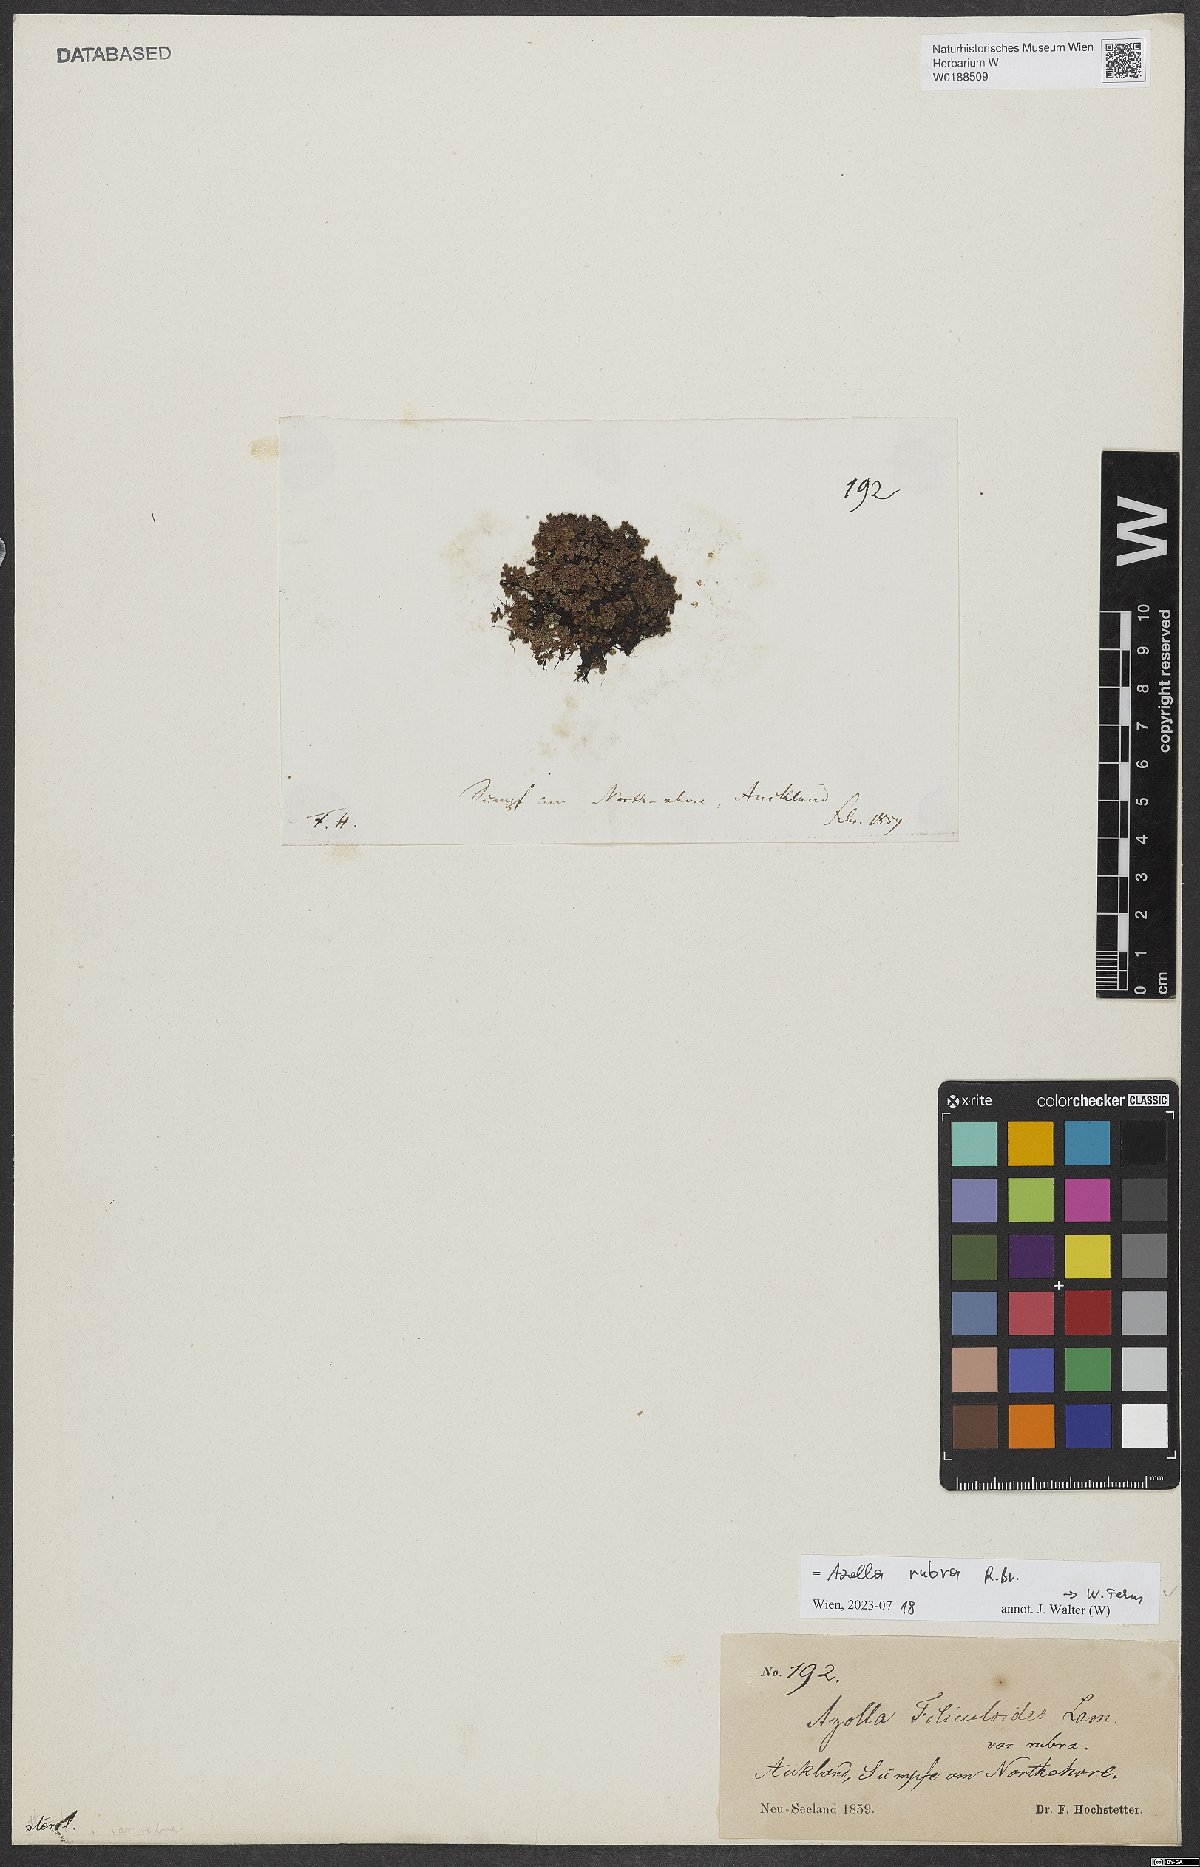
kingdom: Plantae
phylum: Tracheophyta
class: Polypodiopsida
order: Salviniales
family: Salviniaceae
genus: Azolla
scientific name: Azolla rubra
